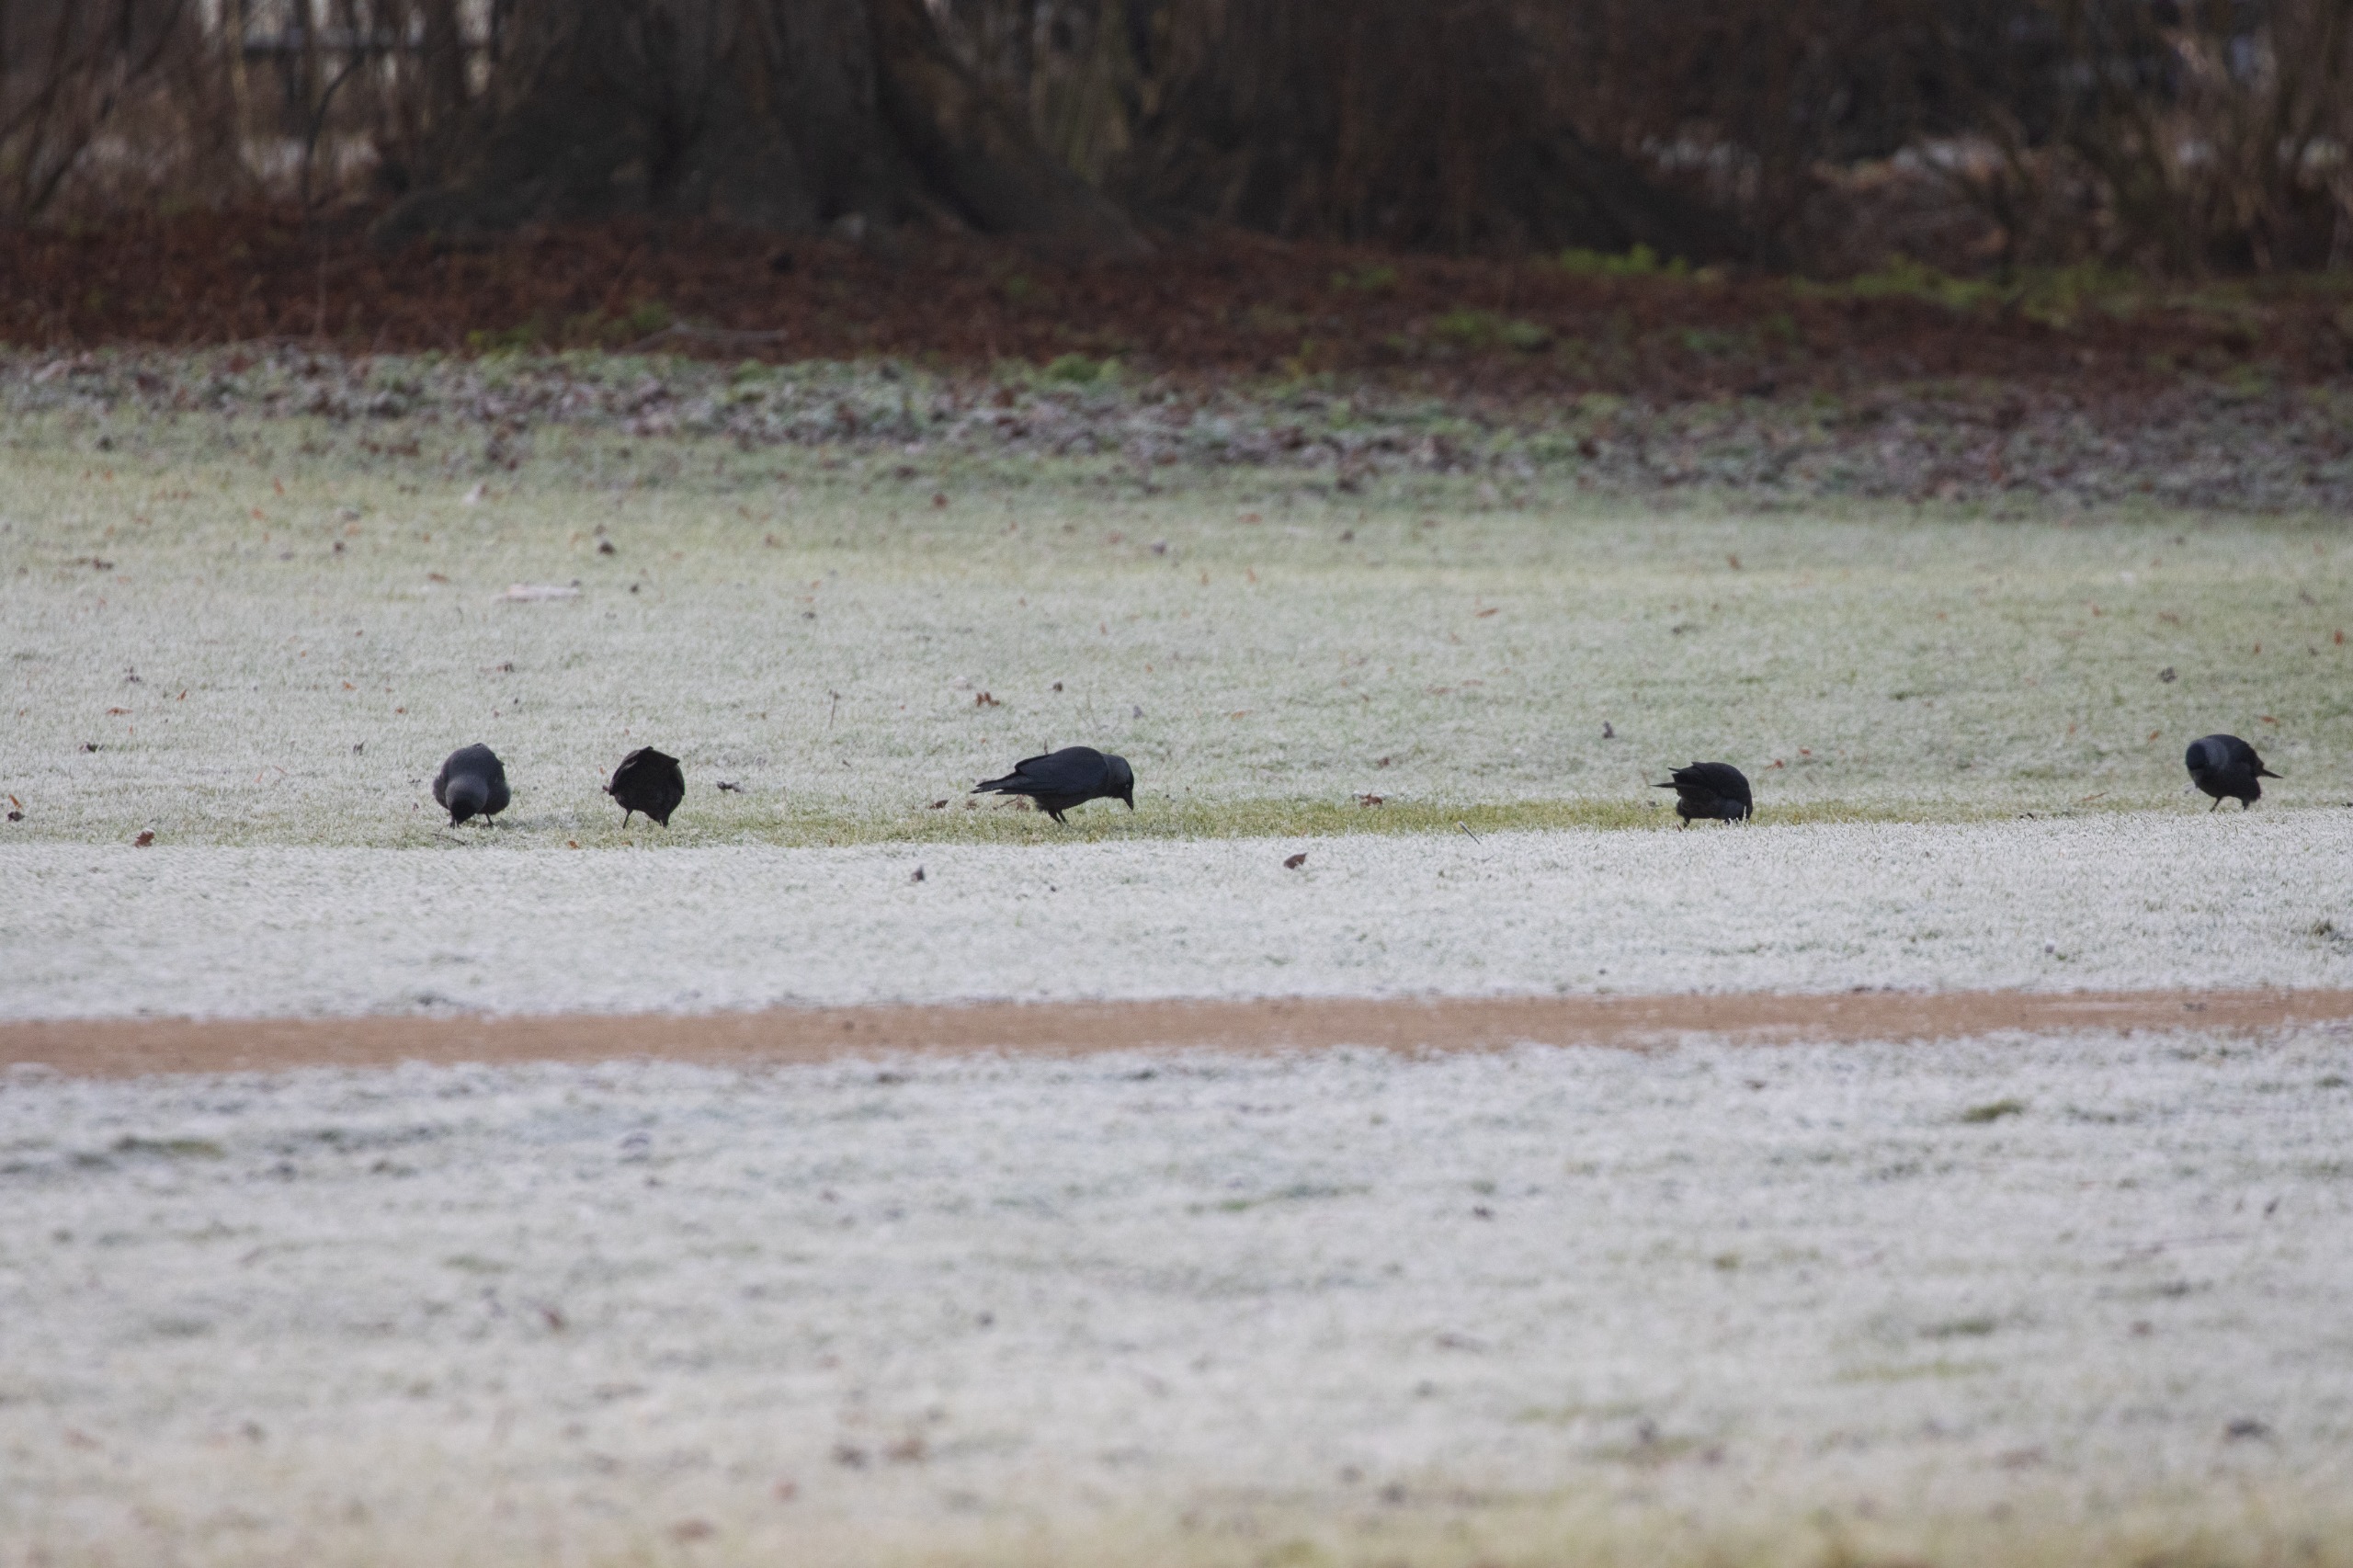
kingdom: Animalia
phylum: Chordata
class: Aves
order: Passeriformes
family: Corvidae
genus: Coloeus
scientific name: Coloeus monedula
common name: Almindelig allike
